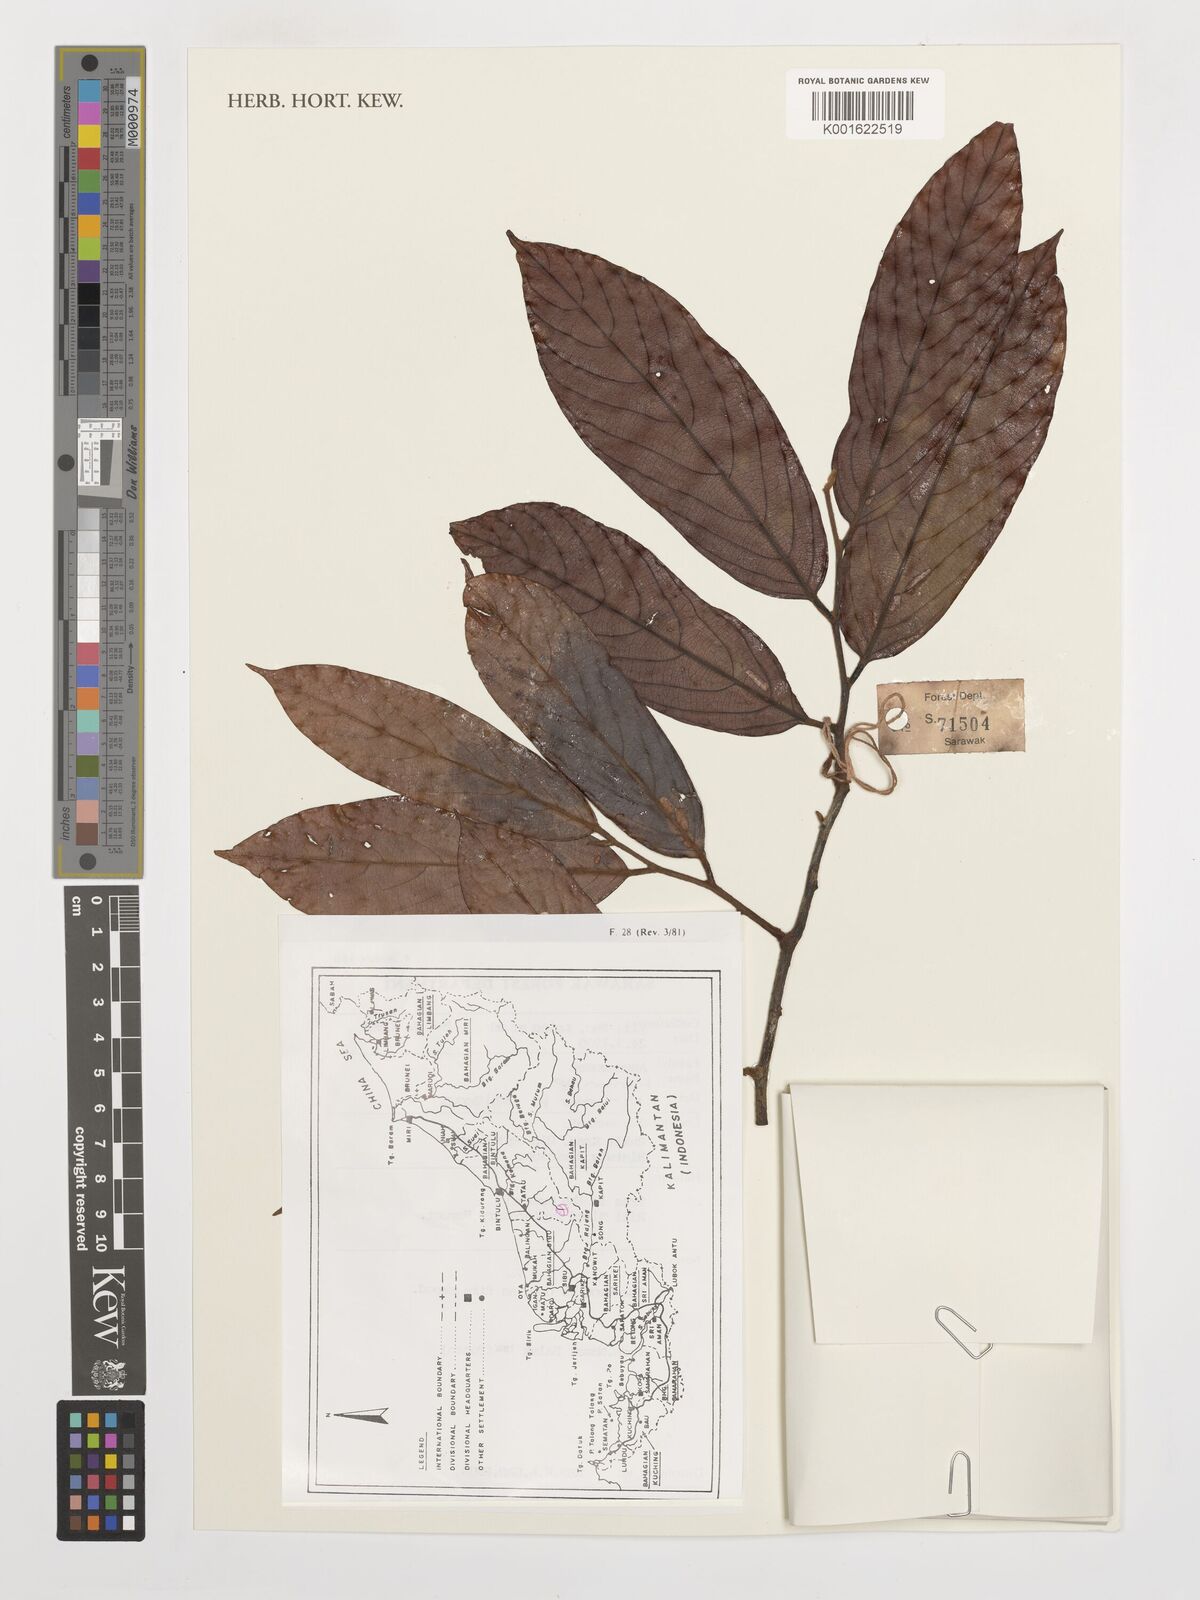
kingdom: Plantae
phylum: Tracheophyta
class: Magnoliopsida
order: Magnoliales
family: Annonaceae
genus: Monoon
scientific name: Monoon
